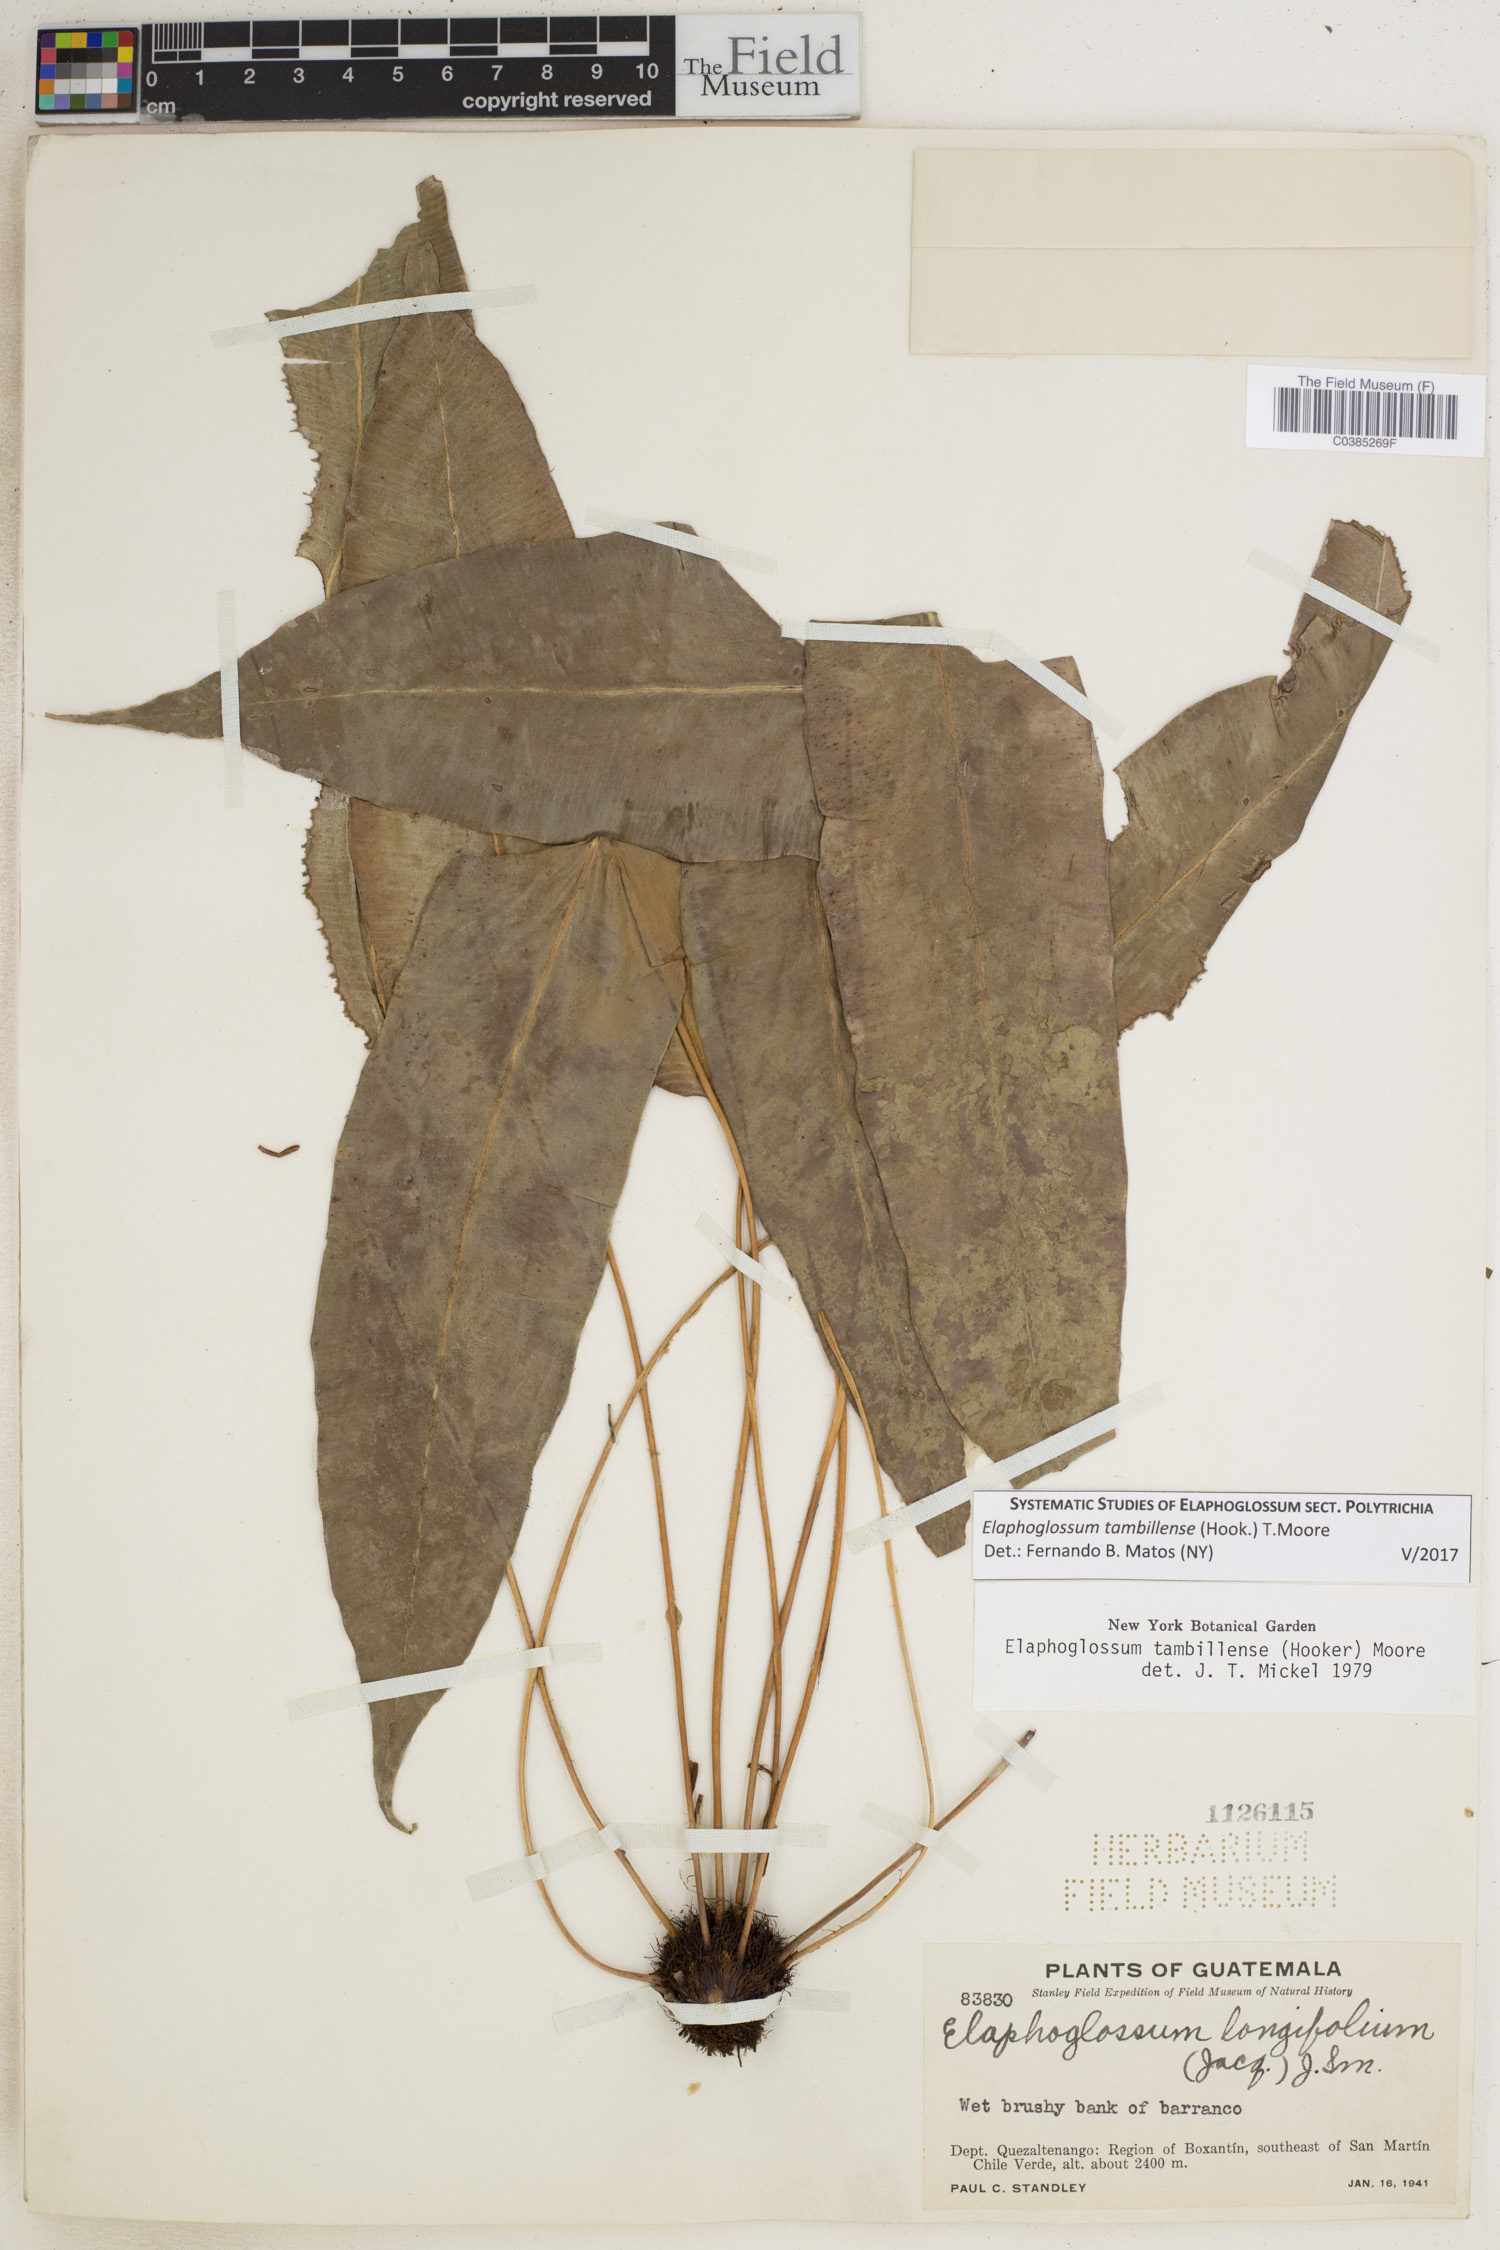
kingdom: Plantae
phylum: Tracheophyta
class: Polypodiopsida
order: Polypodiales
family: Dryopteridaceae
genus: Elaphoglossum
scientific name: Elaphoglossum tambillense
